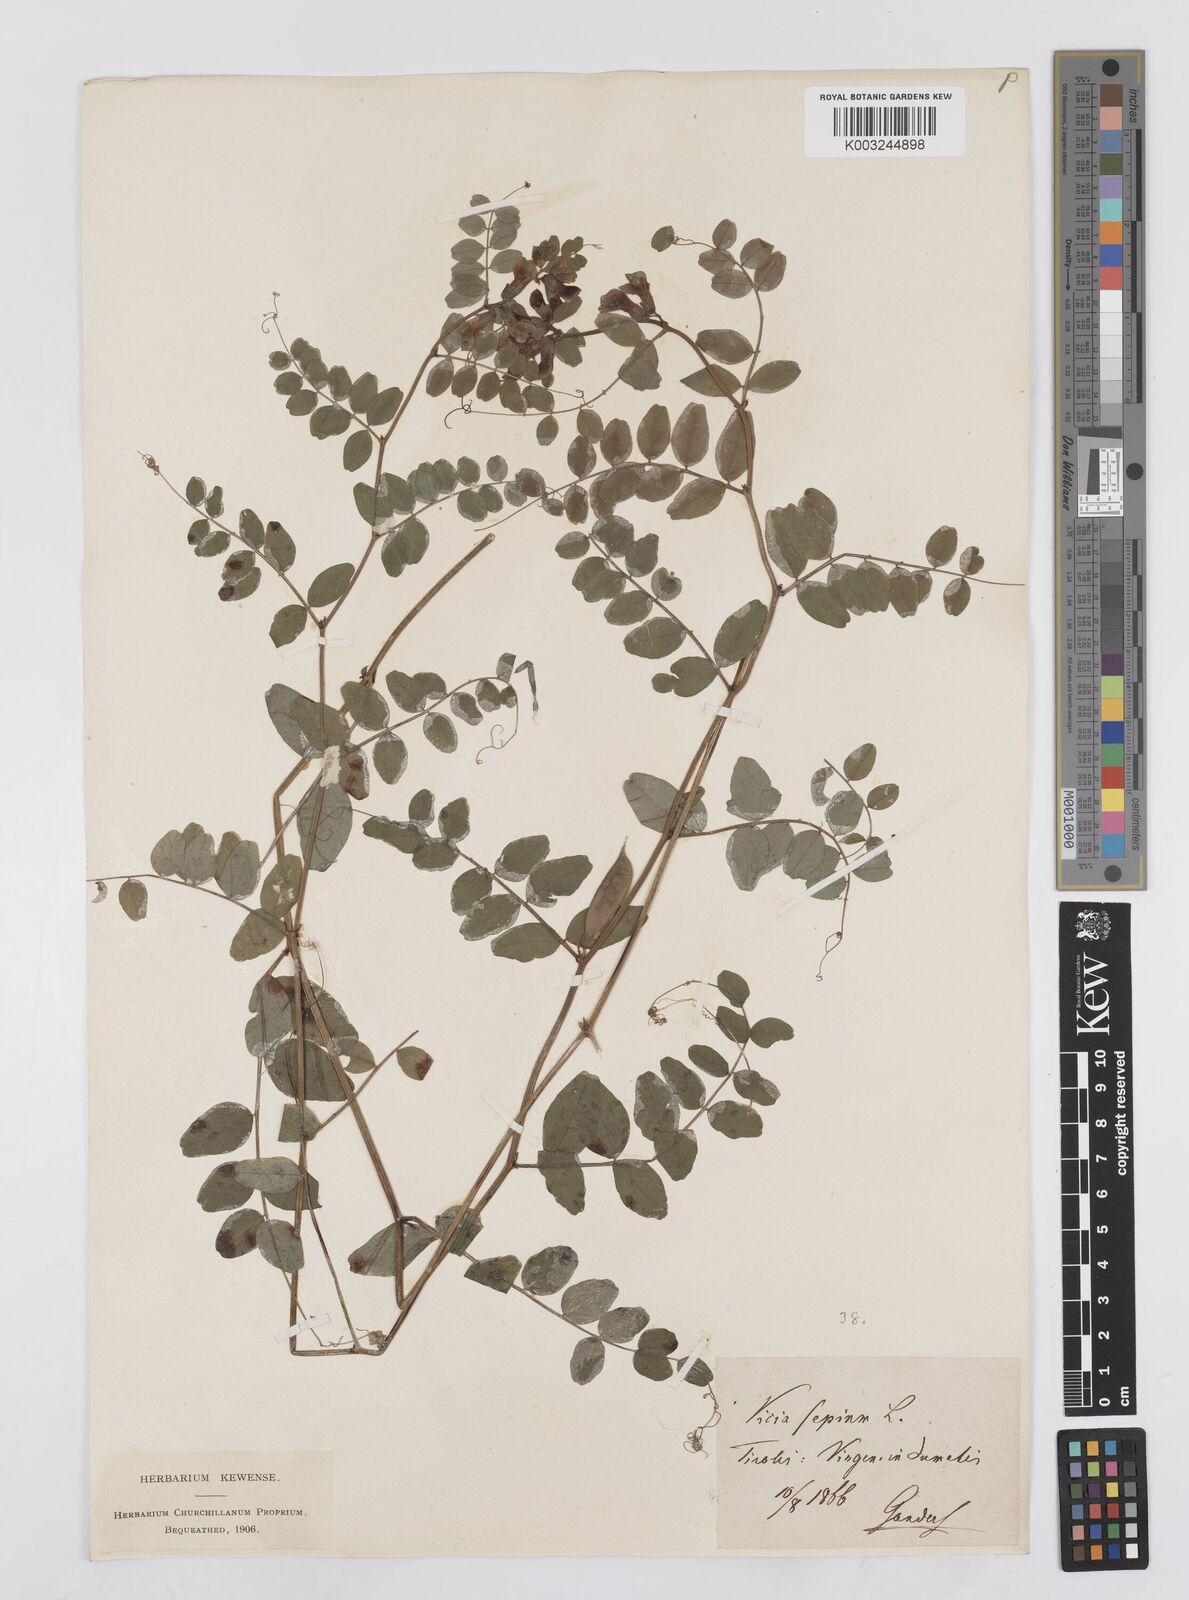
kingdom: Plantae
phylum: Tracheophyta
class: Magnoliopsida
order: Fabales
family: Fabaceae
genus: Vicia
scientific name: Vicia sepium
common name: Bush vetch
